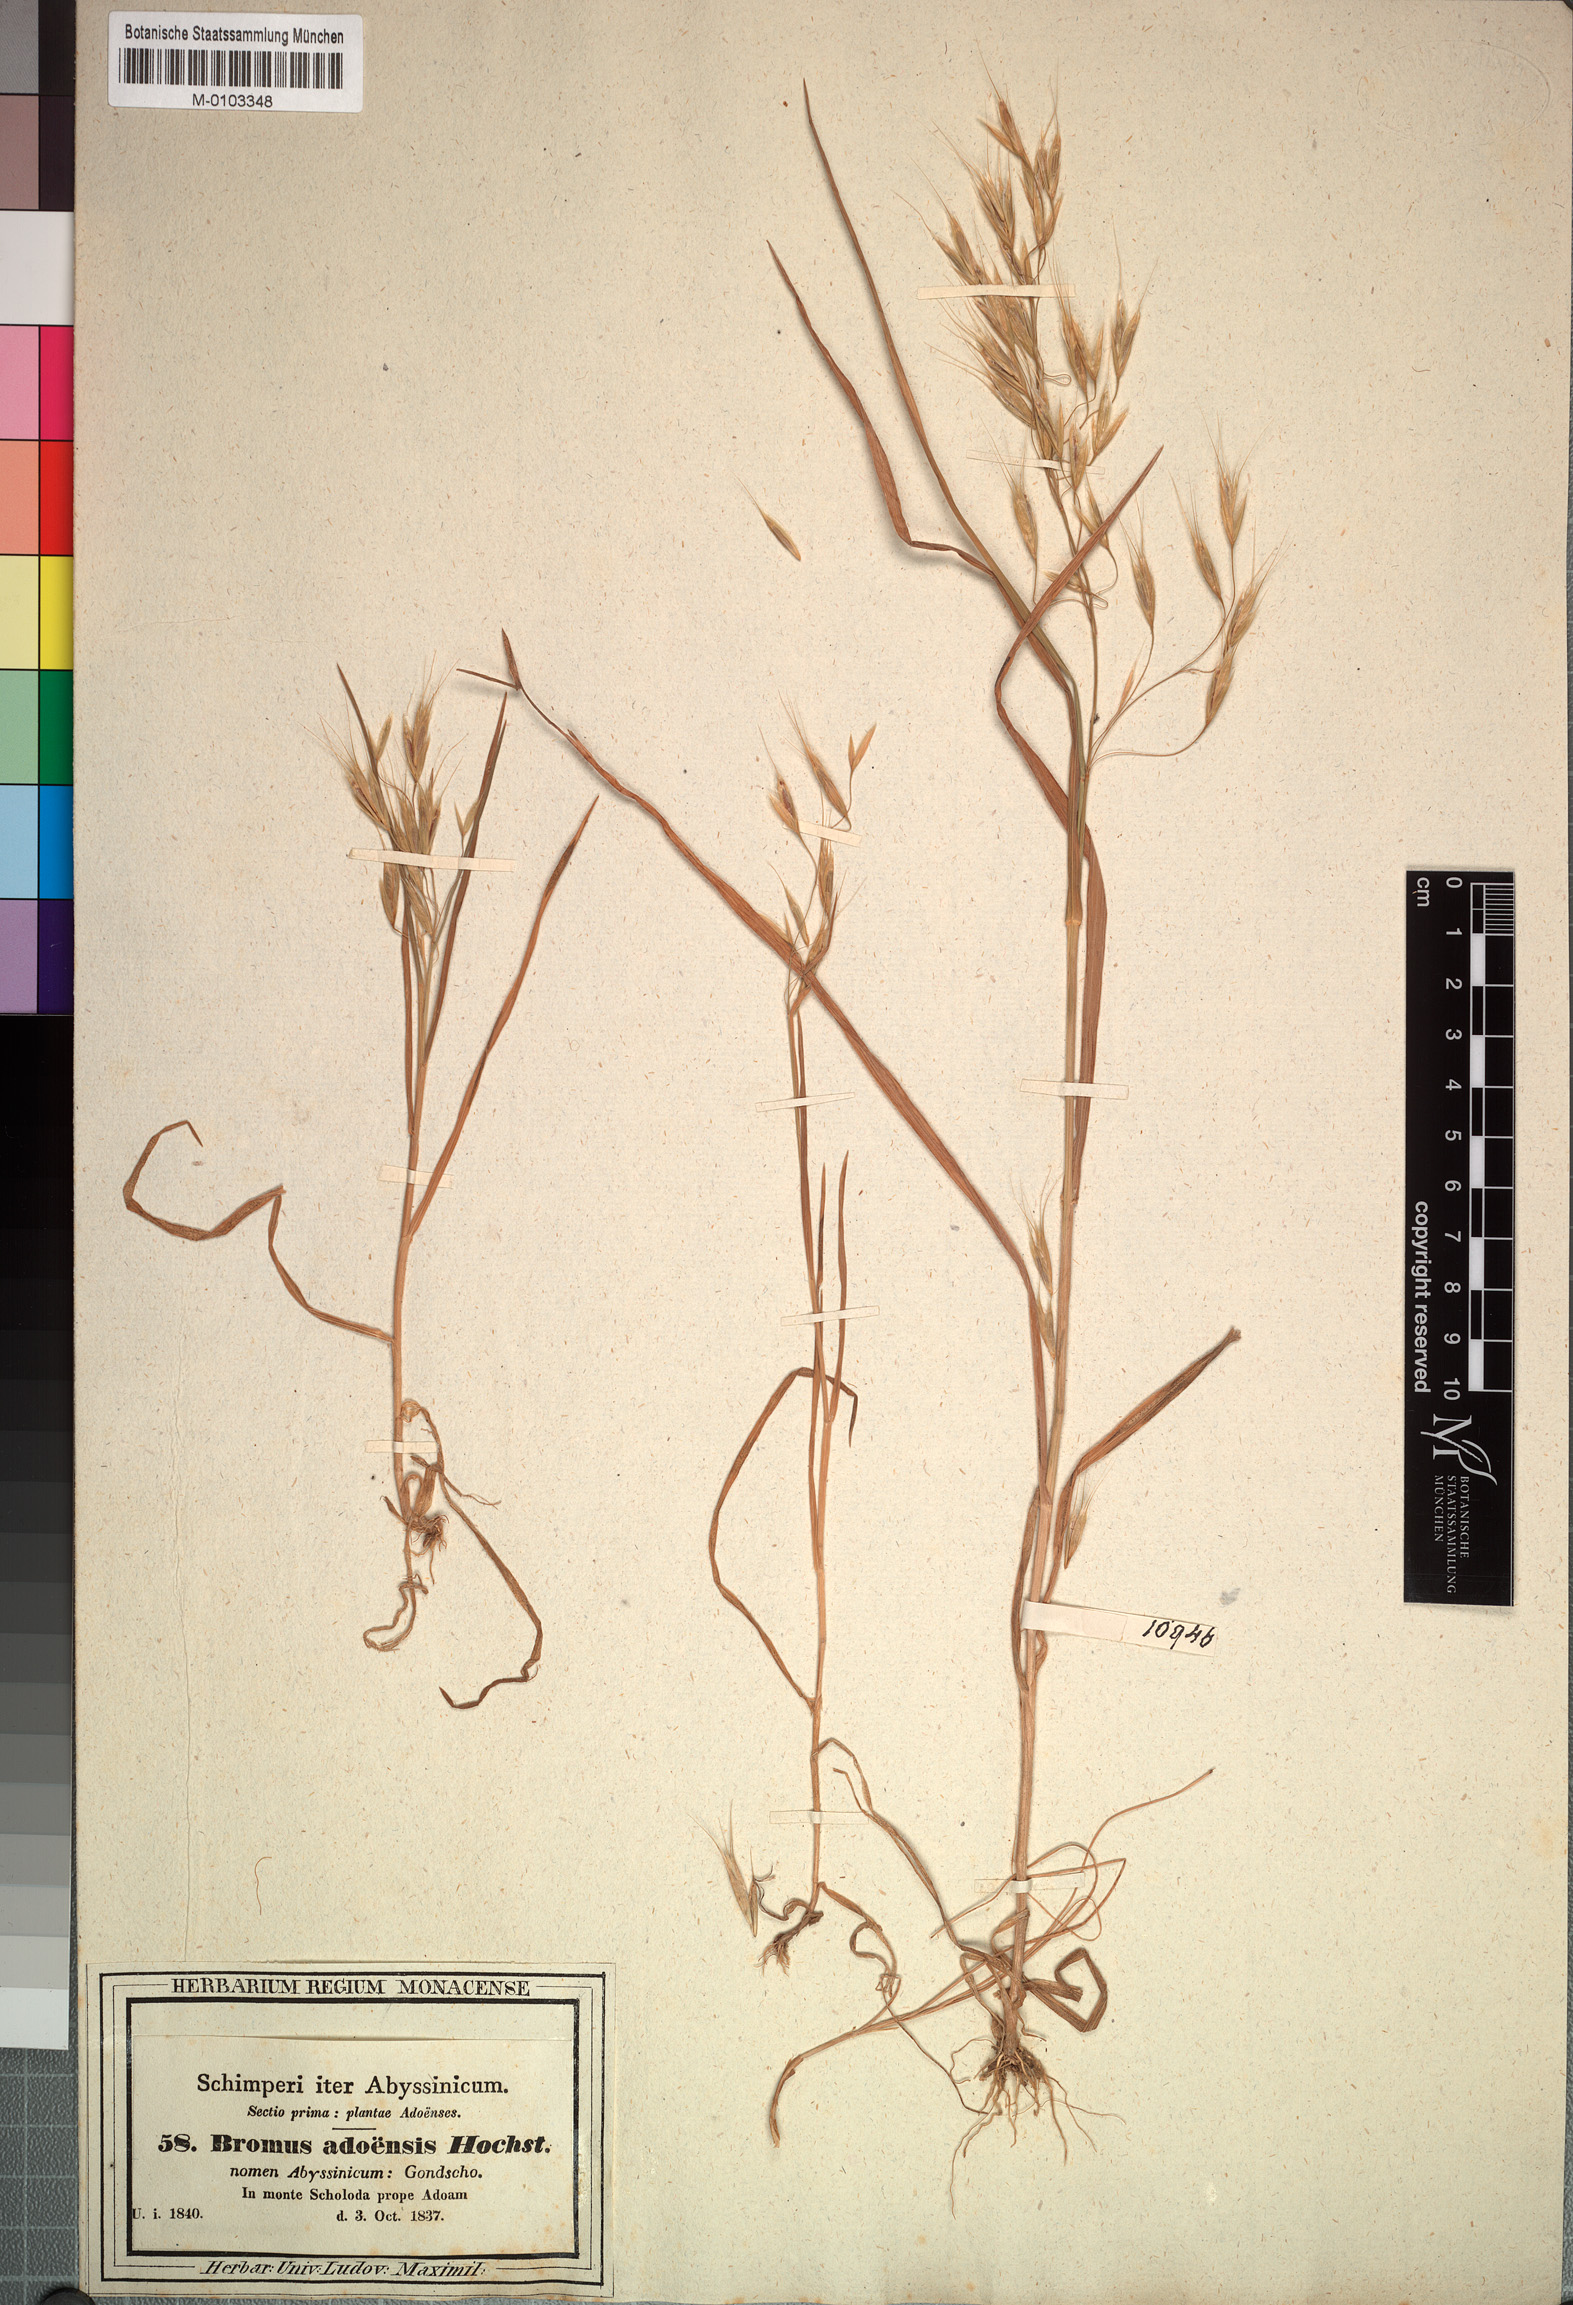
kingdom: Plantae
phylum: Tracheophyta
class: Liliopsida
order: Poales
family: Poaceae
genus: Bromus
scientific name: Bromus pectinatus
